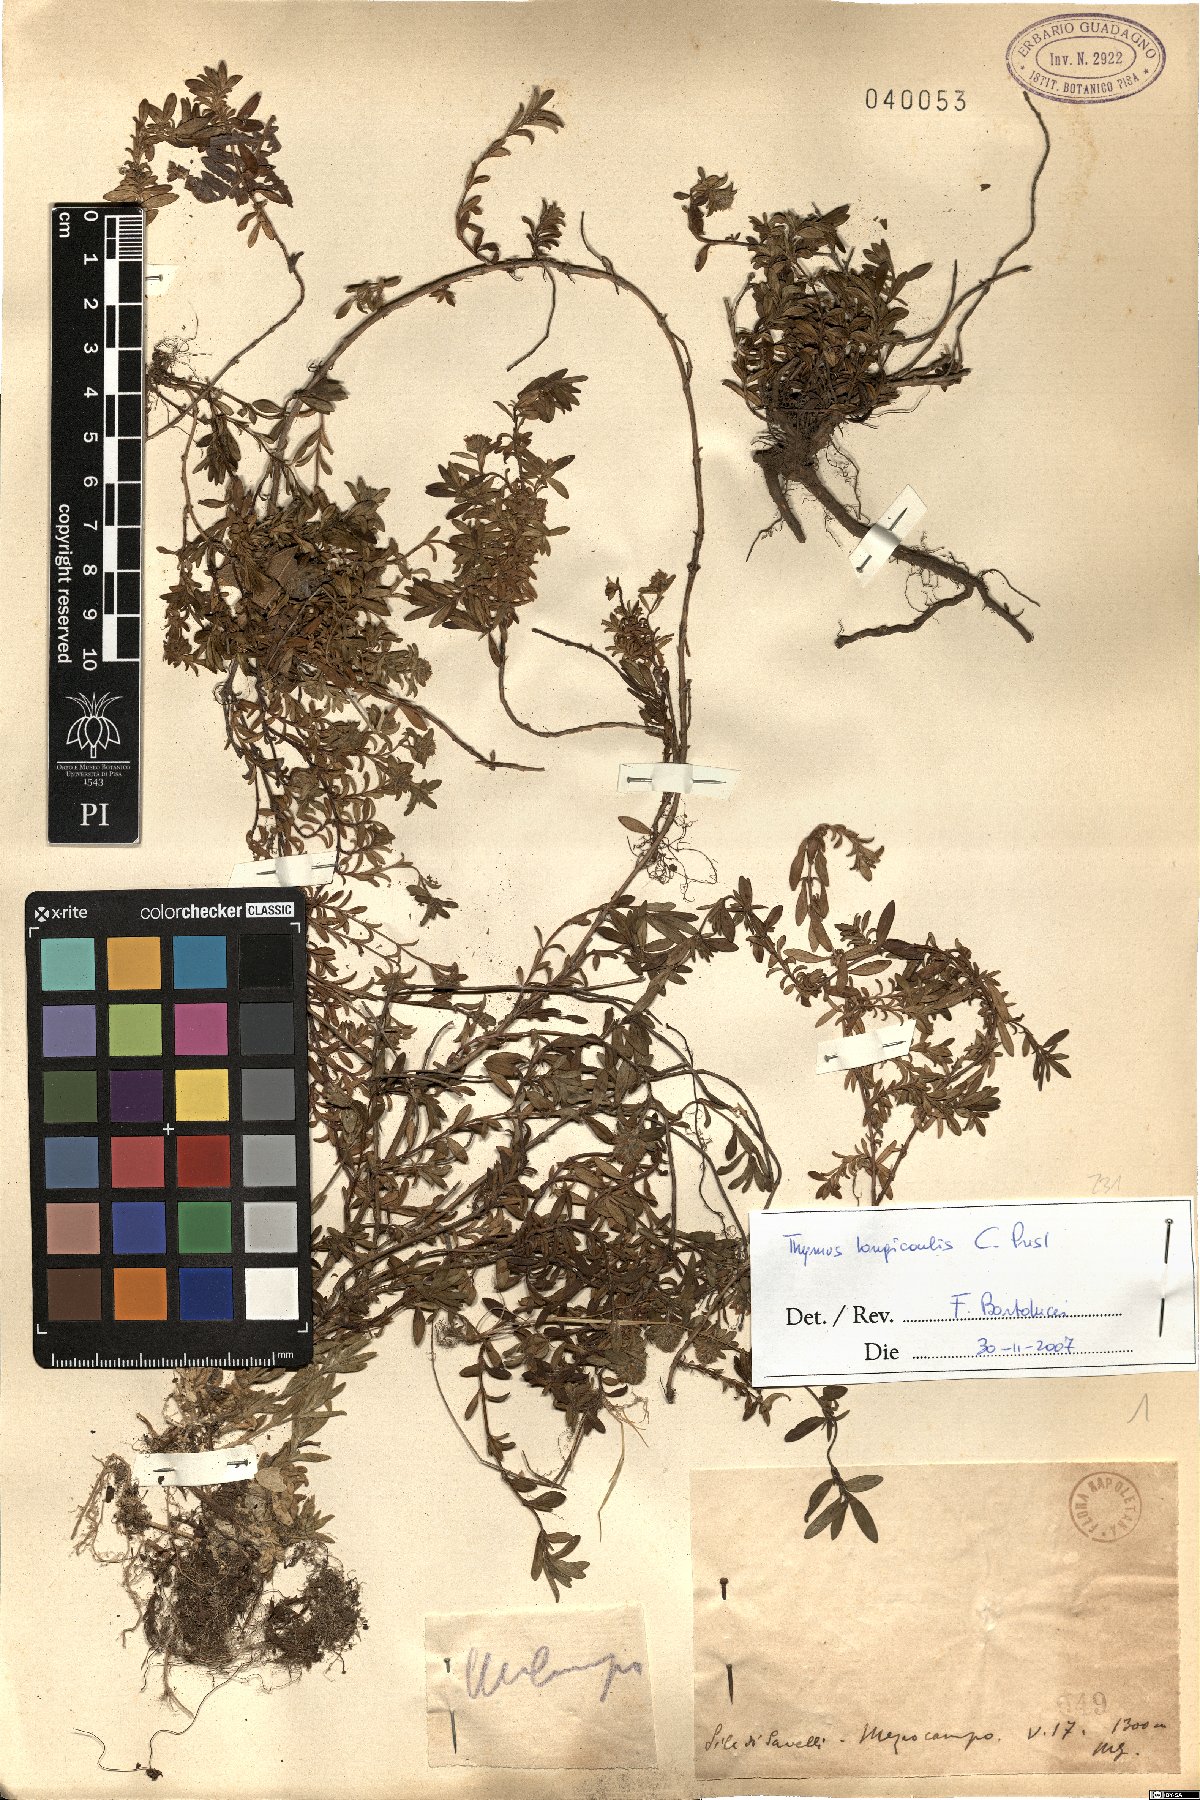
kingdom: Plantae
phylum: Tracheophyta
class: Magnoliopsida
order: Lamiales
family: Lamiaceae
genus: Thymus
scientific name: Thymus longicaulis
